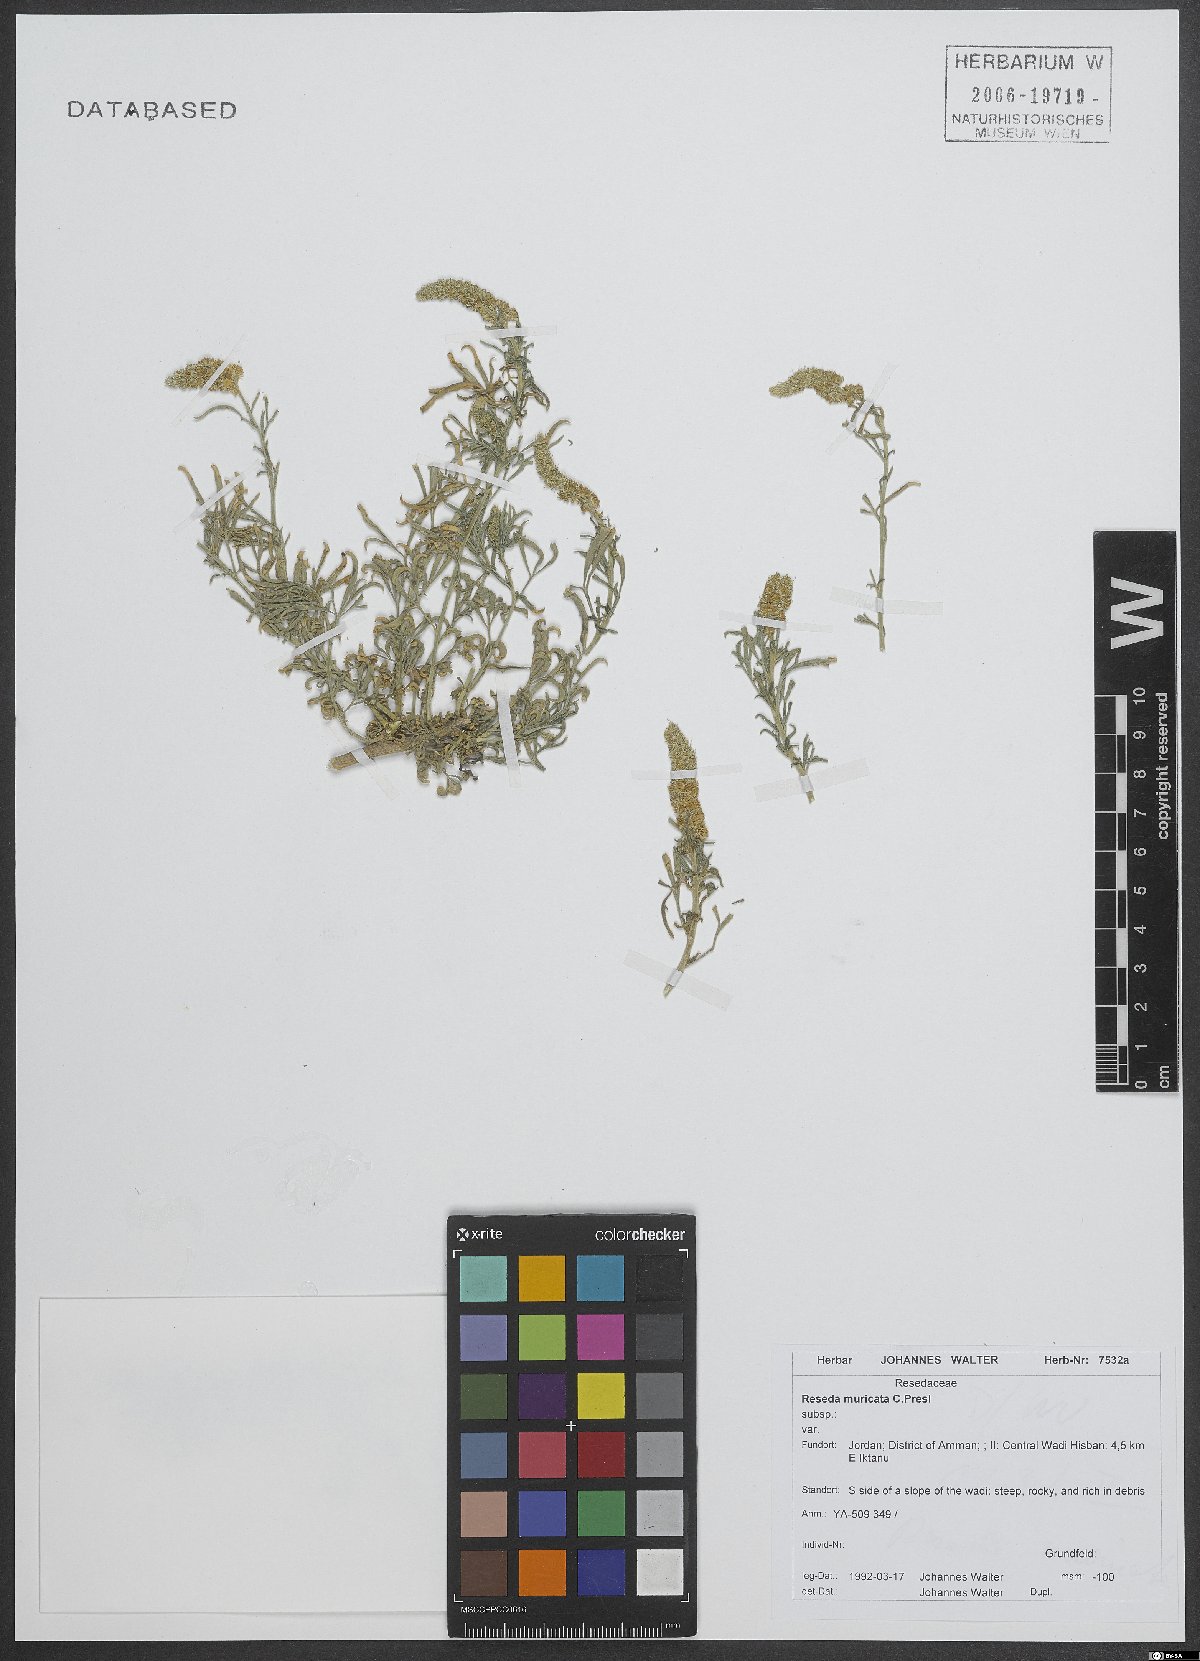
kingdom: Plantae
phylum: Tracheophyta
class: Magnoliopsida
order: Brassicales
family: Resedaceae
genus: Reseda
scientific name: Reseda muricata
